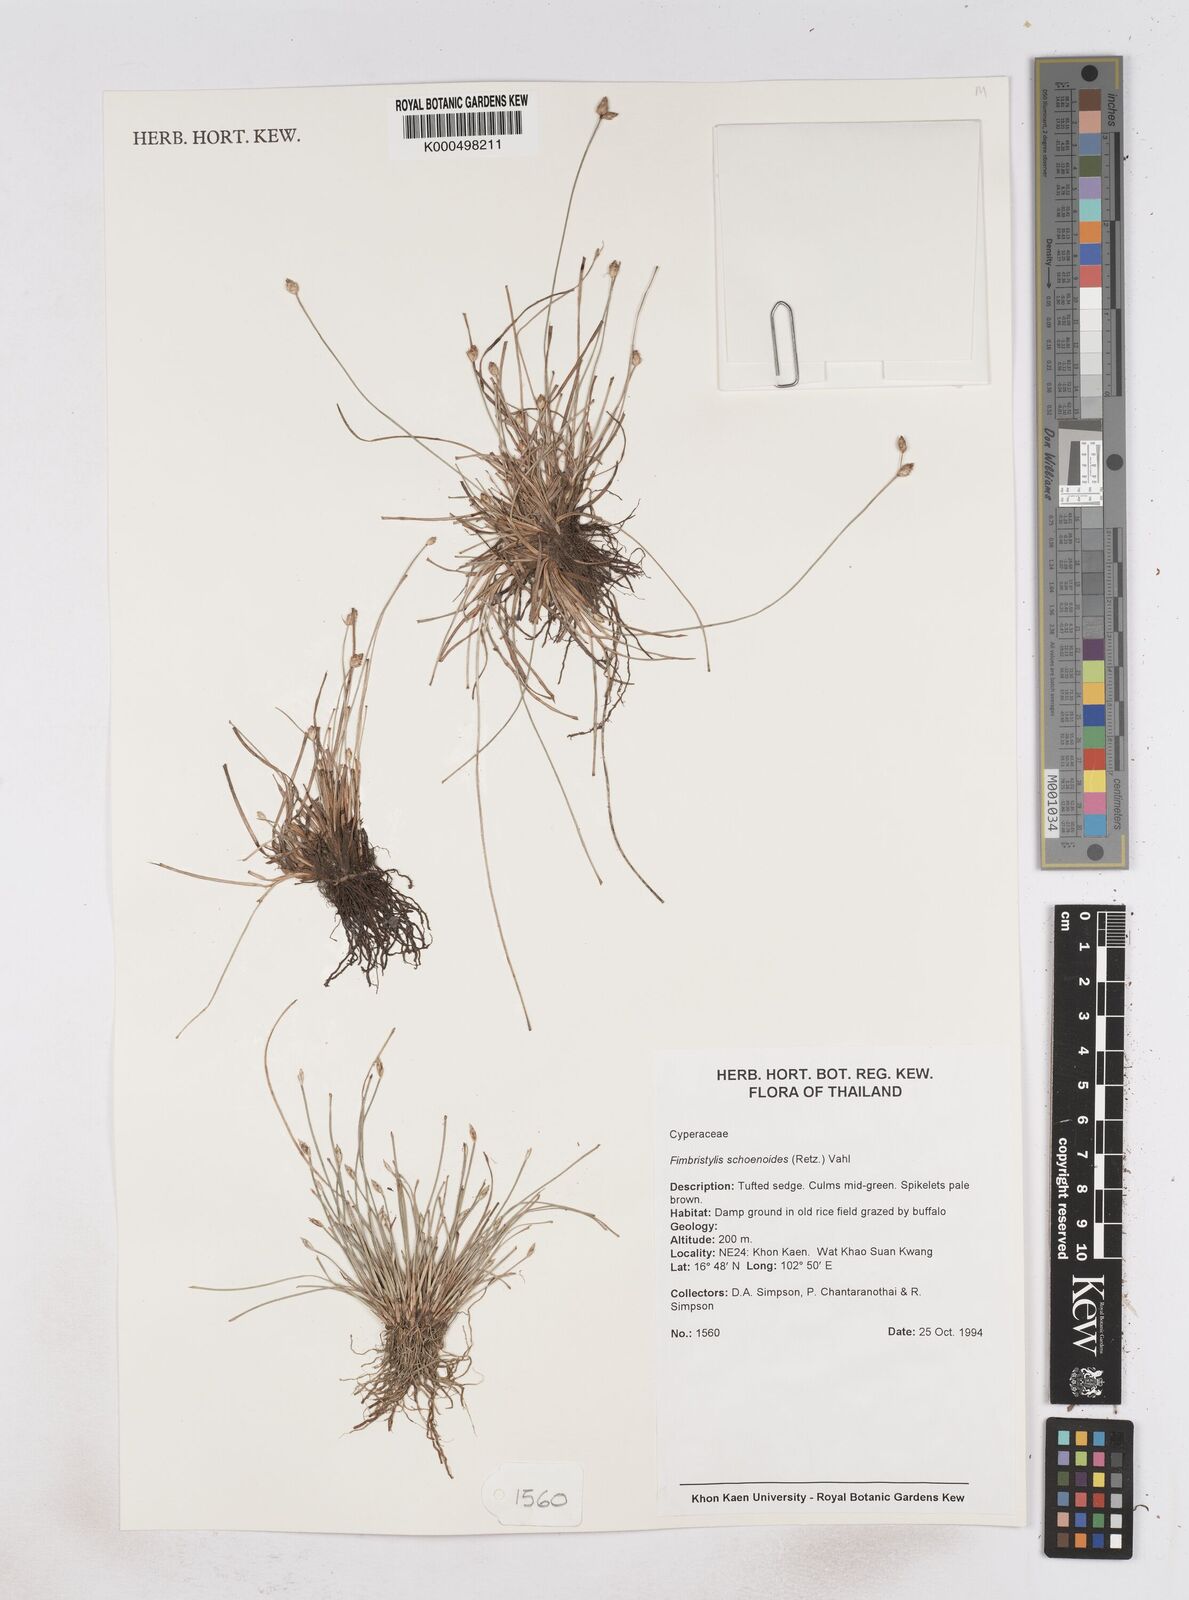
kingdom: Plantae
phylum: Tracheophyta
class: Liliopsida
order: Poales
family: Cyperaceae
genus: Fimbristylis
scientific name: Fimbristylis schoenoides
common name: Ditch fimbry
